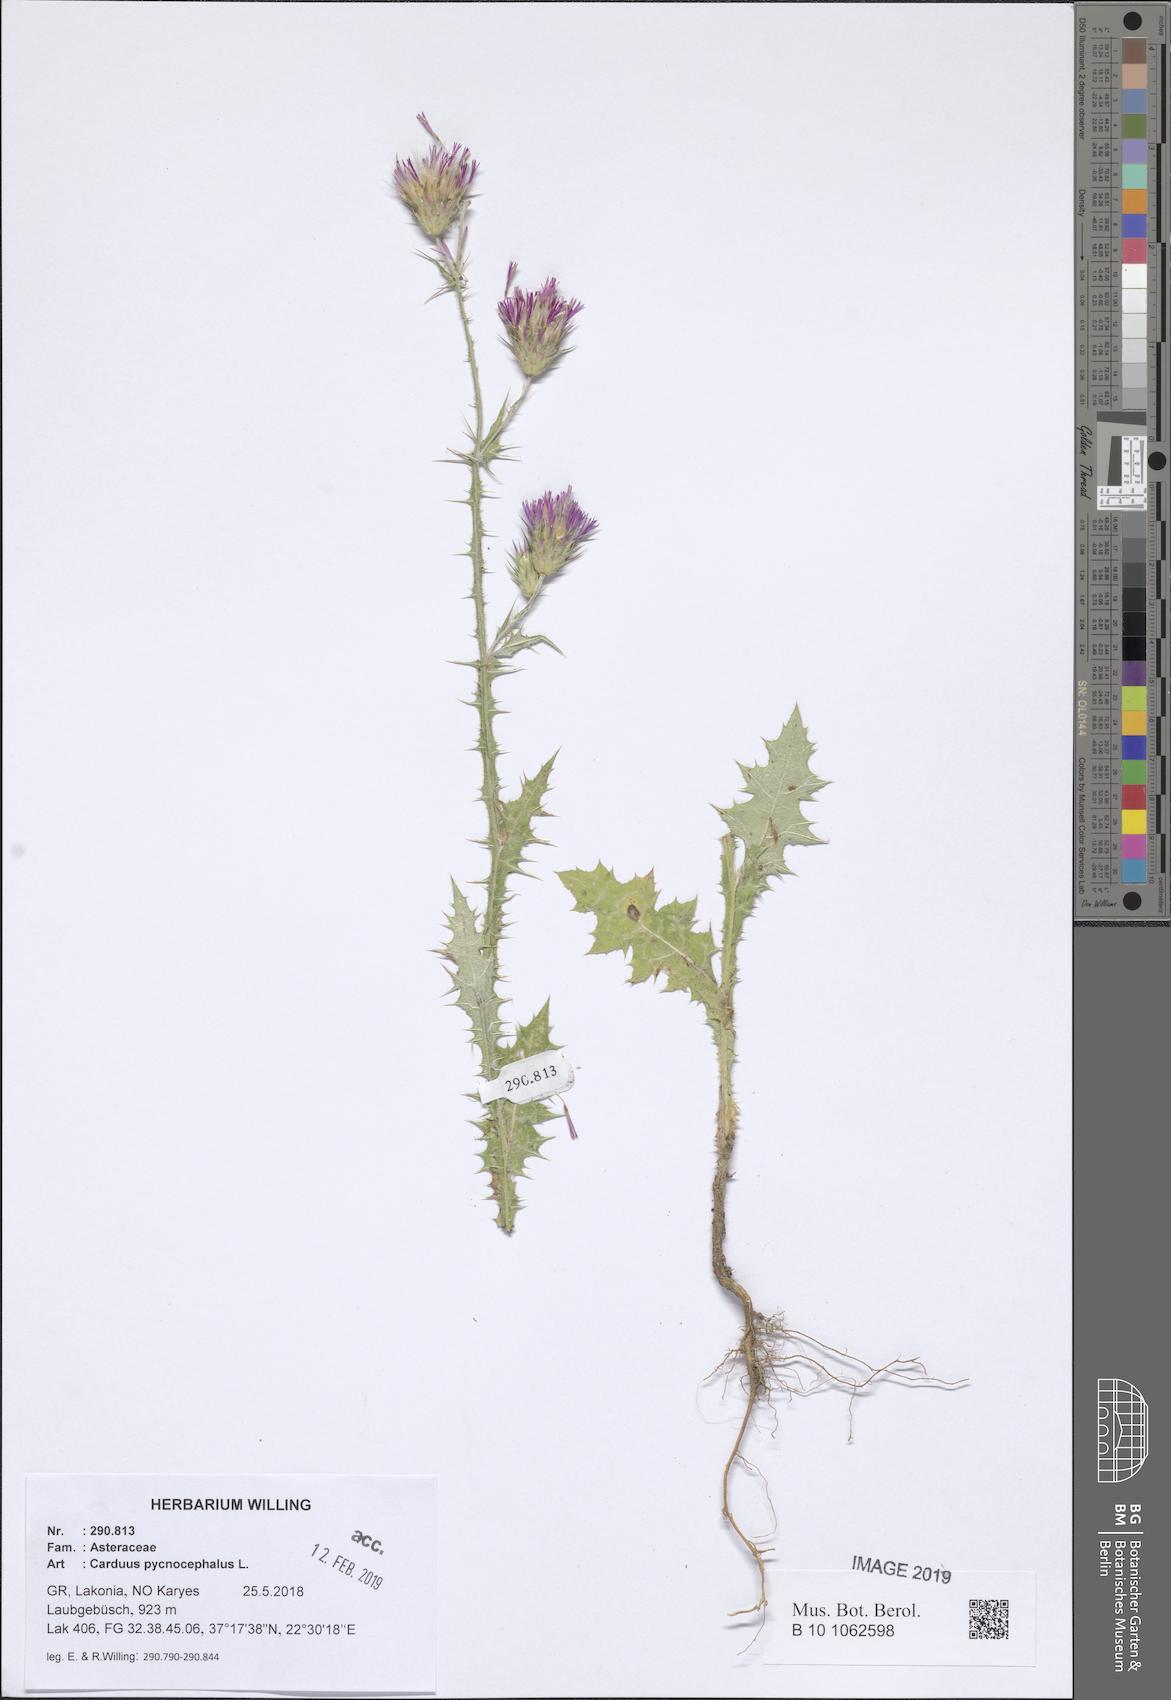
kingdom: Plantae
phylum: Tracheophyta
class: Magnoliopsida
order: Asterales
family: Asteraceae
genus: Carduus
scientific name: Carduus pycnocephalus
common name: Plymouth thistle
